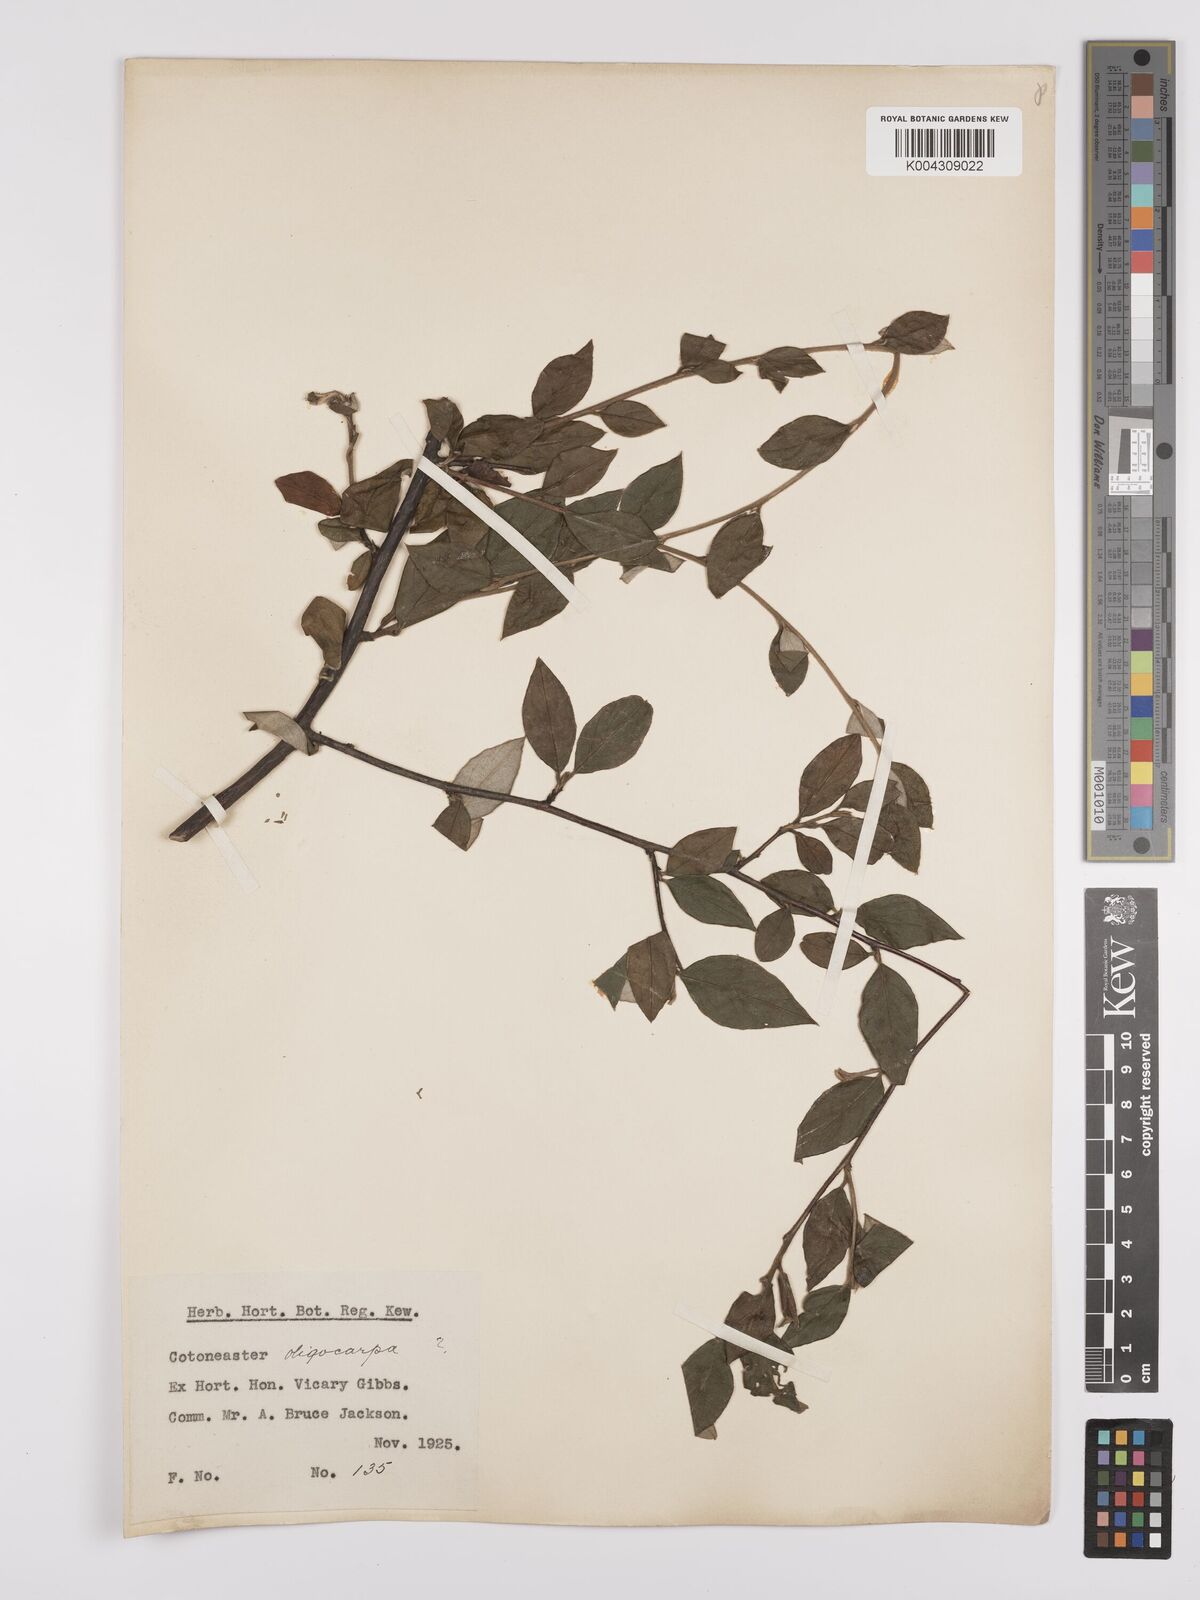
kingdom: Plantae
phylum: Tracheophyta
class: Magnoliopsida
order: Rosales
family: Rosaceae
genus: Cotoneaster
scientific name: Cotoneaster
